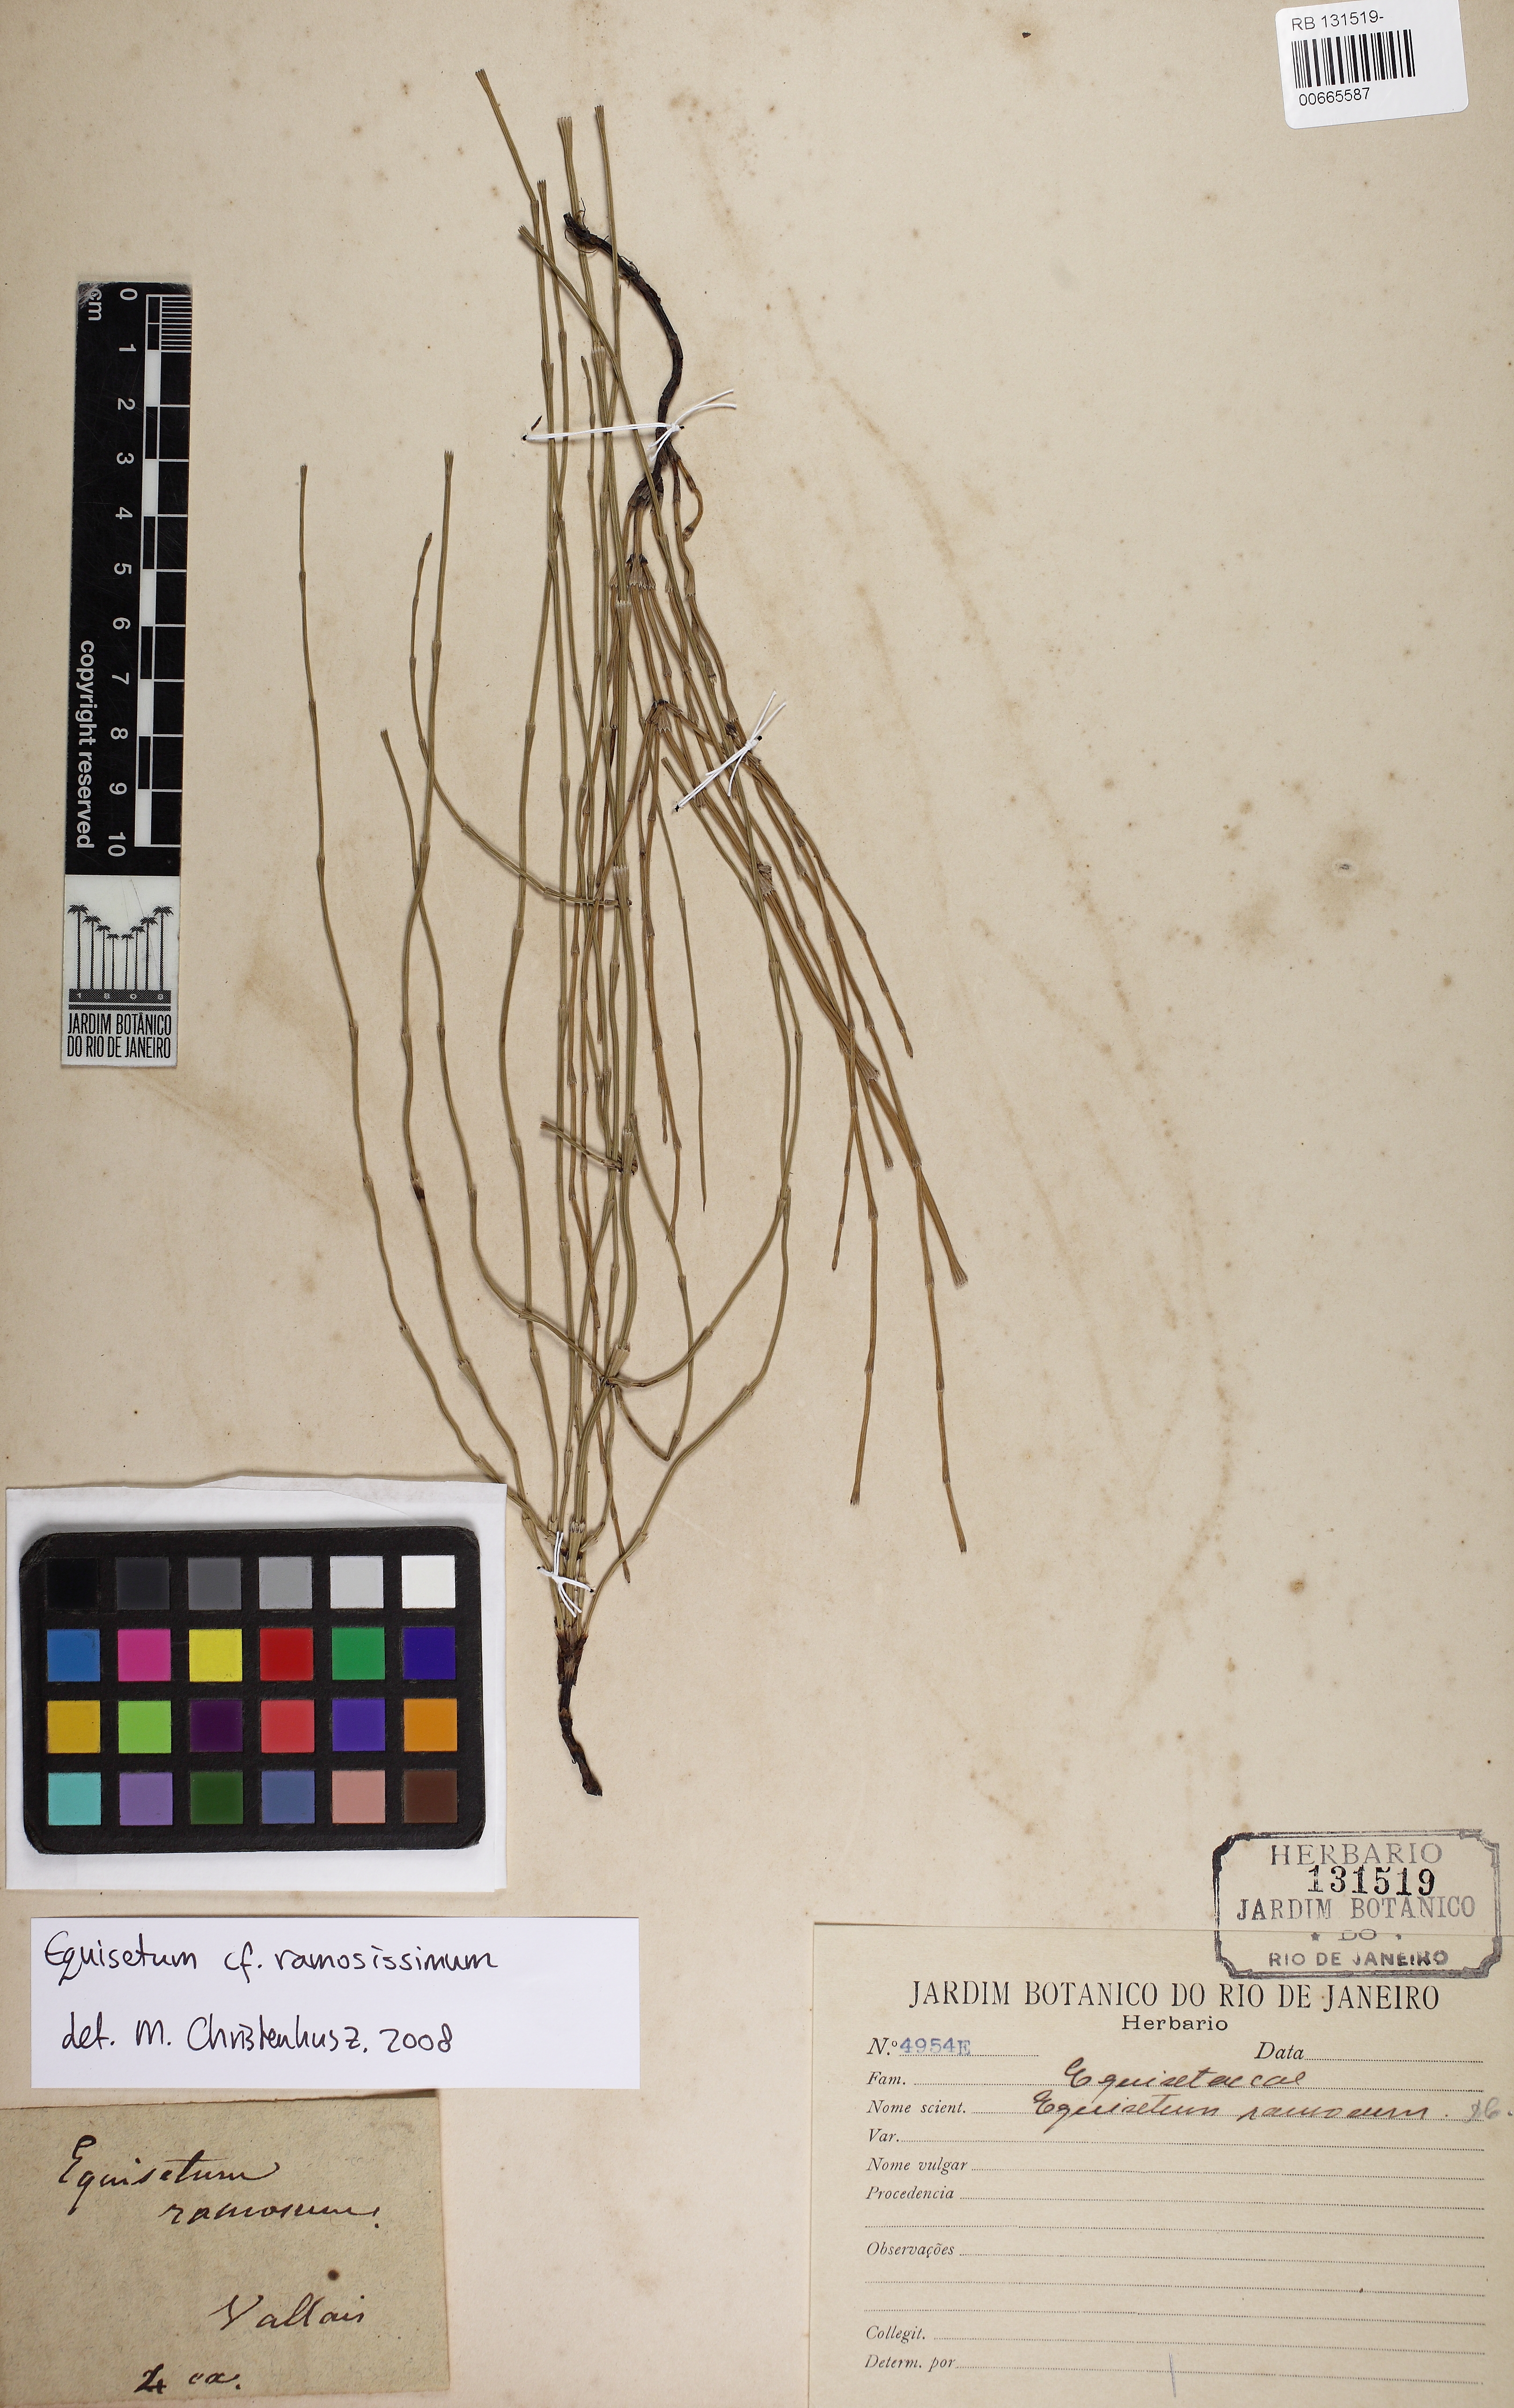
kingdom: Plantae
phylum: Tracheophyta
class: Polypodiopsida
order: Equisetales
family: Equisetaceae
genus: Equisetum
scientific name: Equisetum ramosissimum
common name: Branched horsetail
